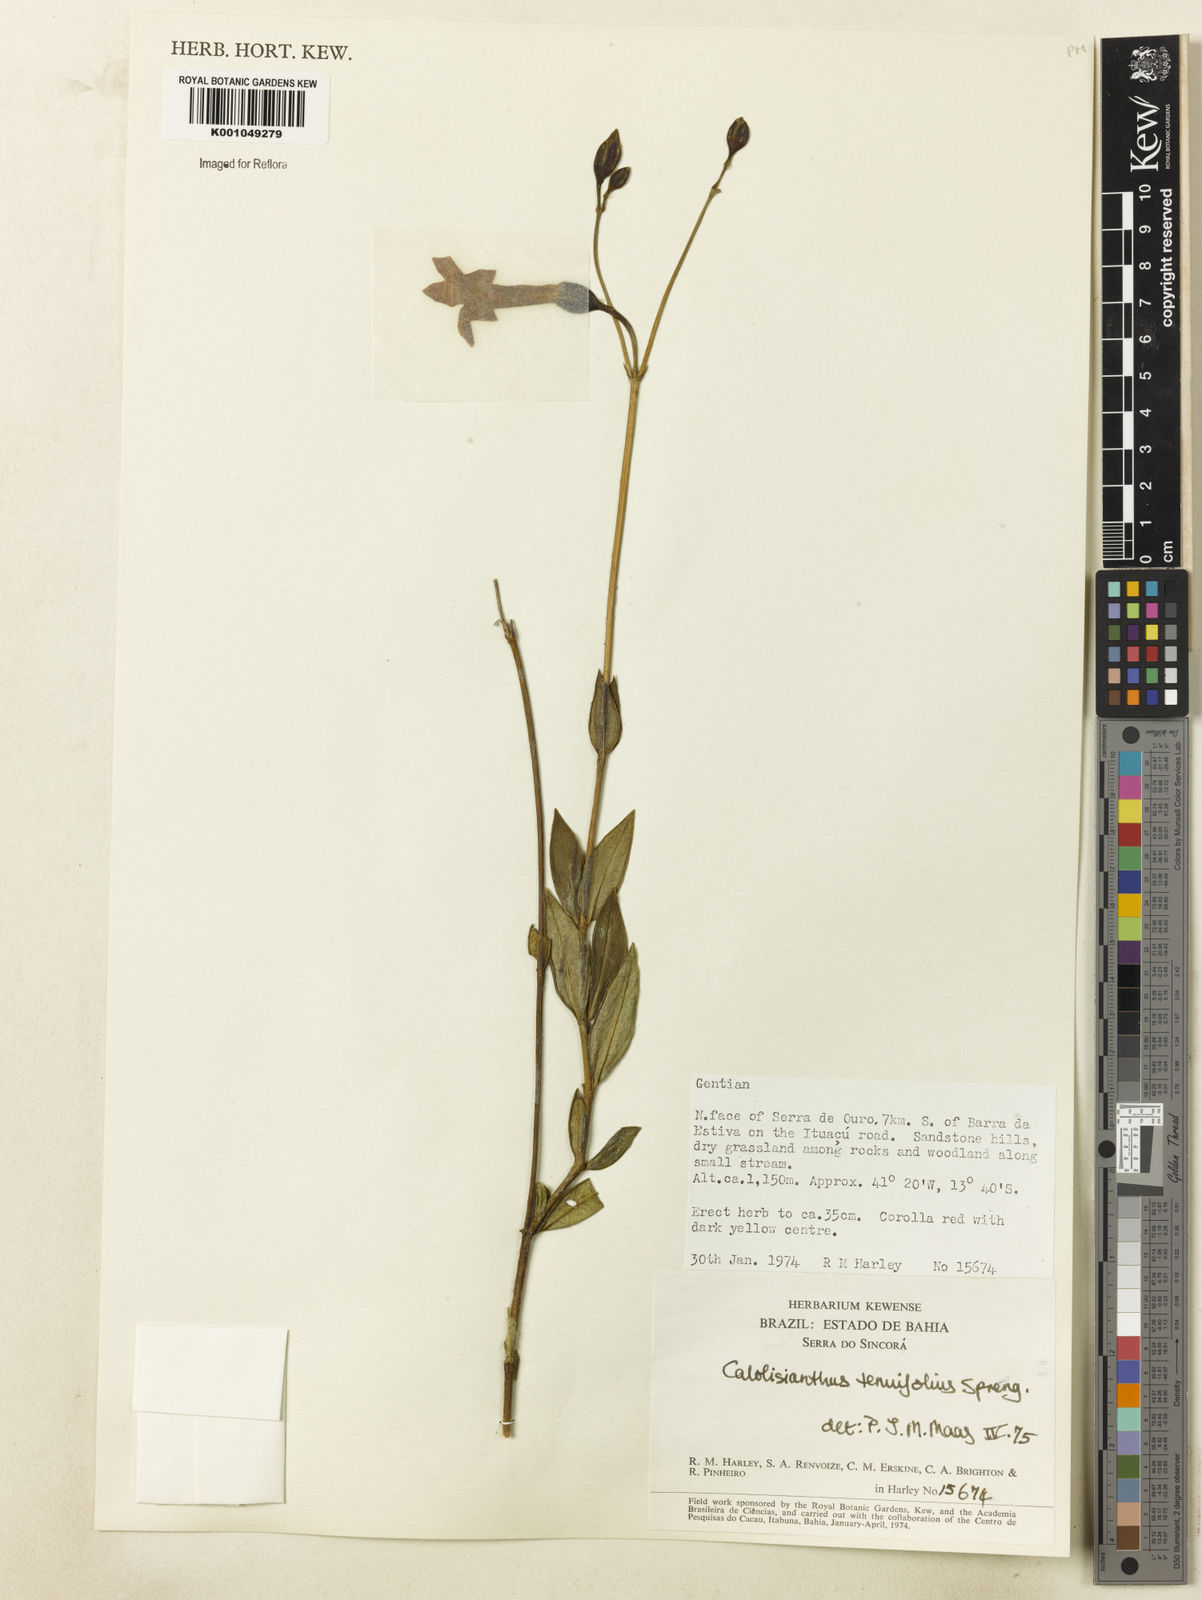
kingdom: Plantae
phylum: Tracheophyta
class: Magnoliopsida
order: Gentianales
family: Gentianaceae
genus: Calolisianthus
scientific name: Calolisianthus
